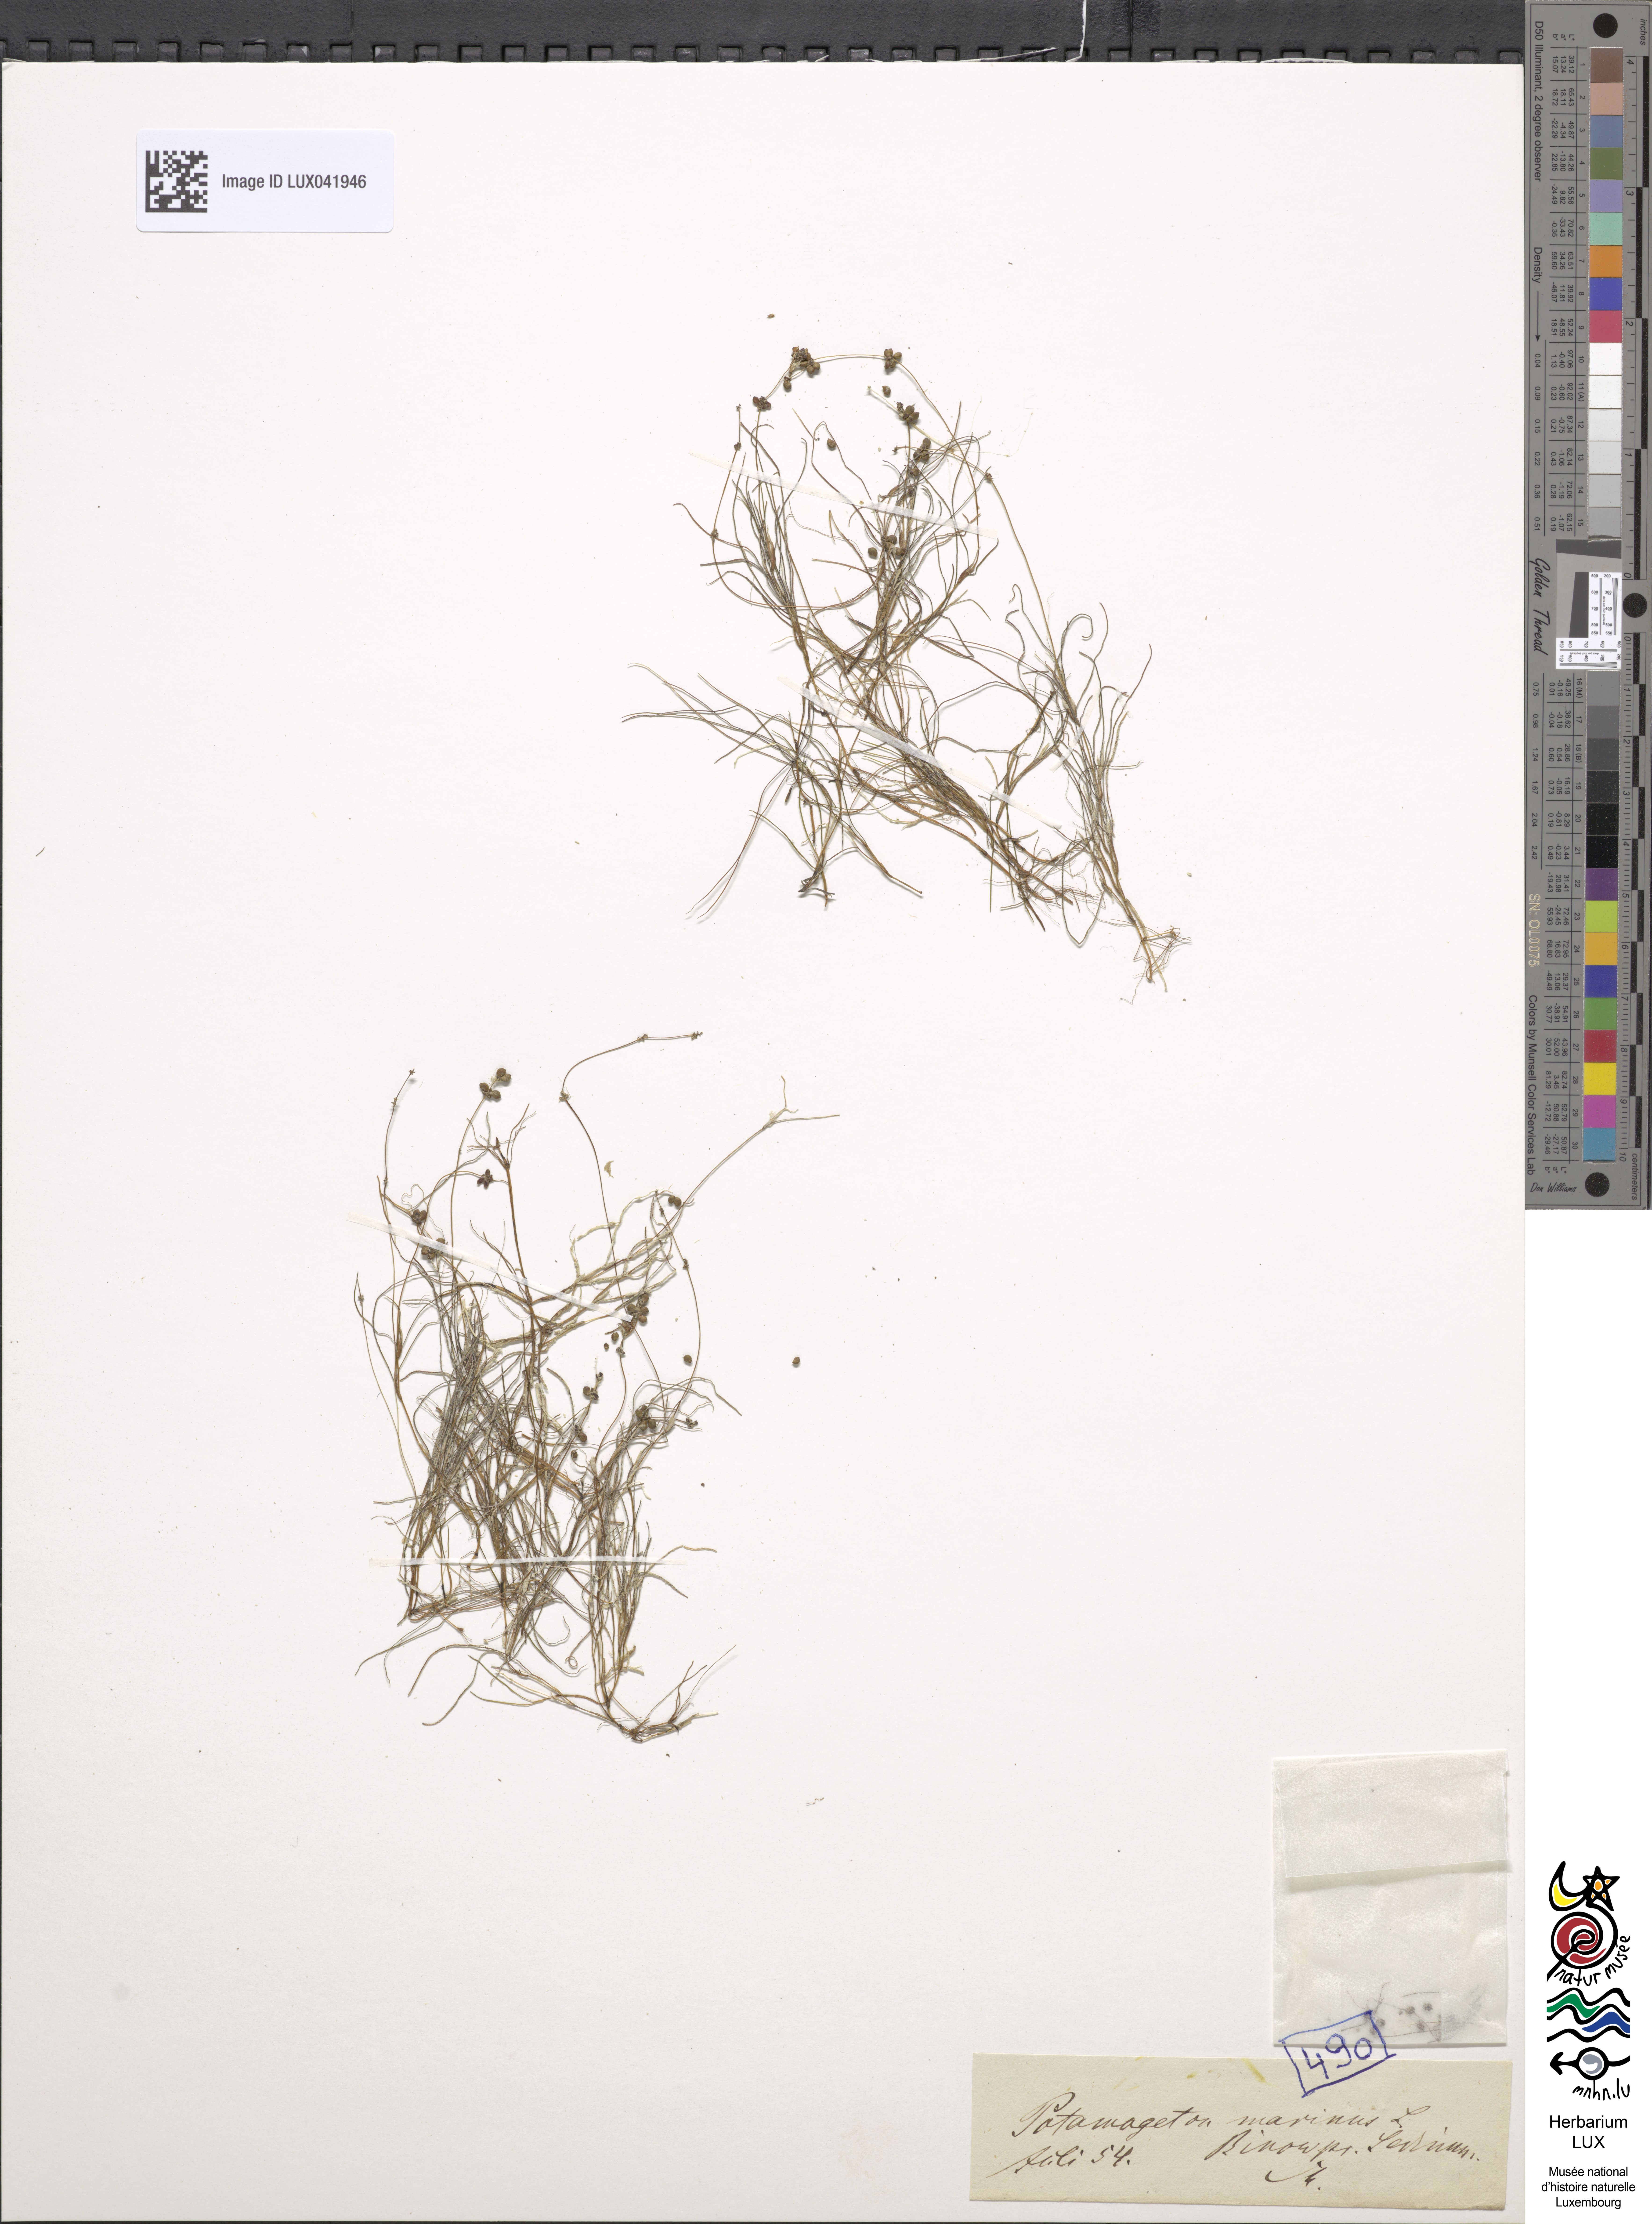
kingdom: Plantae
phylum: Tracheophyta
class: Liliopsida
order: Alismatales
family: Potamogetonaceae
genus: Stuckenia
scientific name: Stuckenia filiformis
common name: Alpine thread-leaved pondweed
